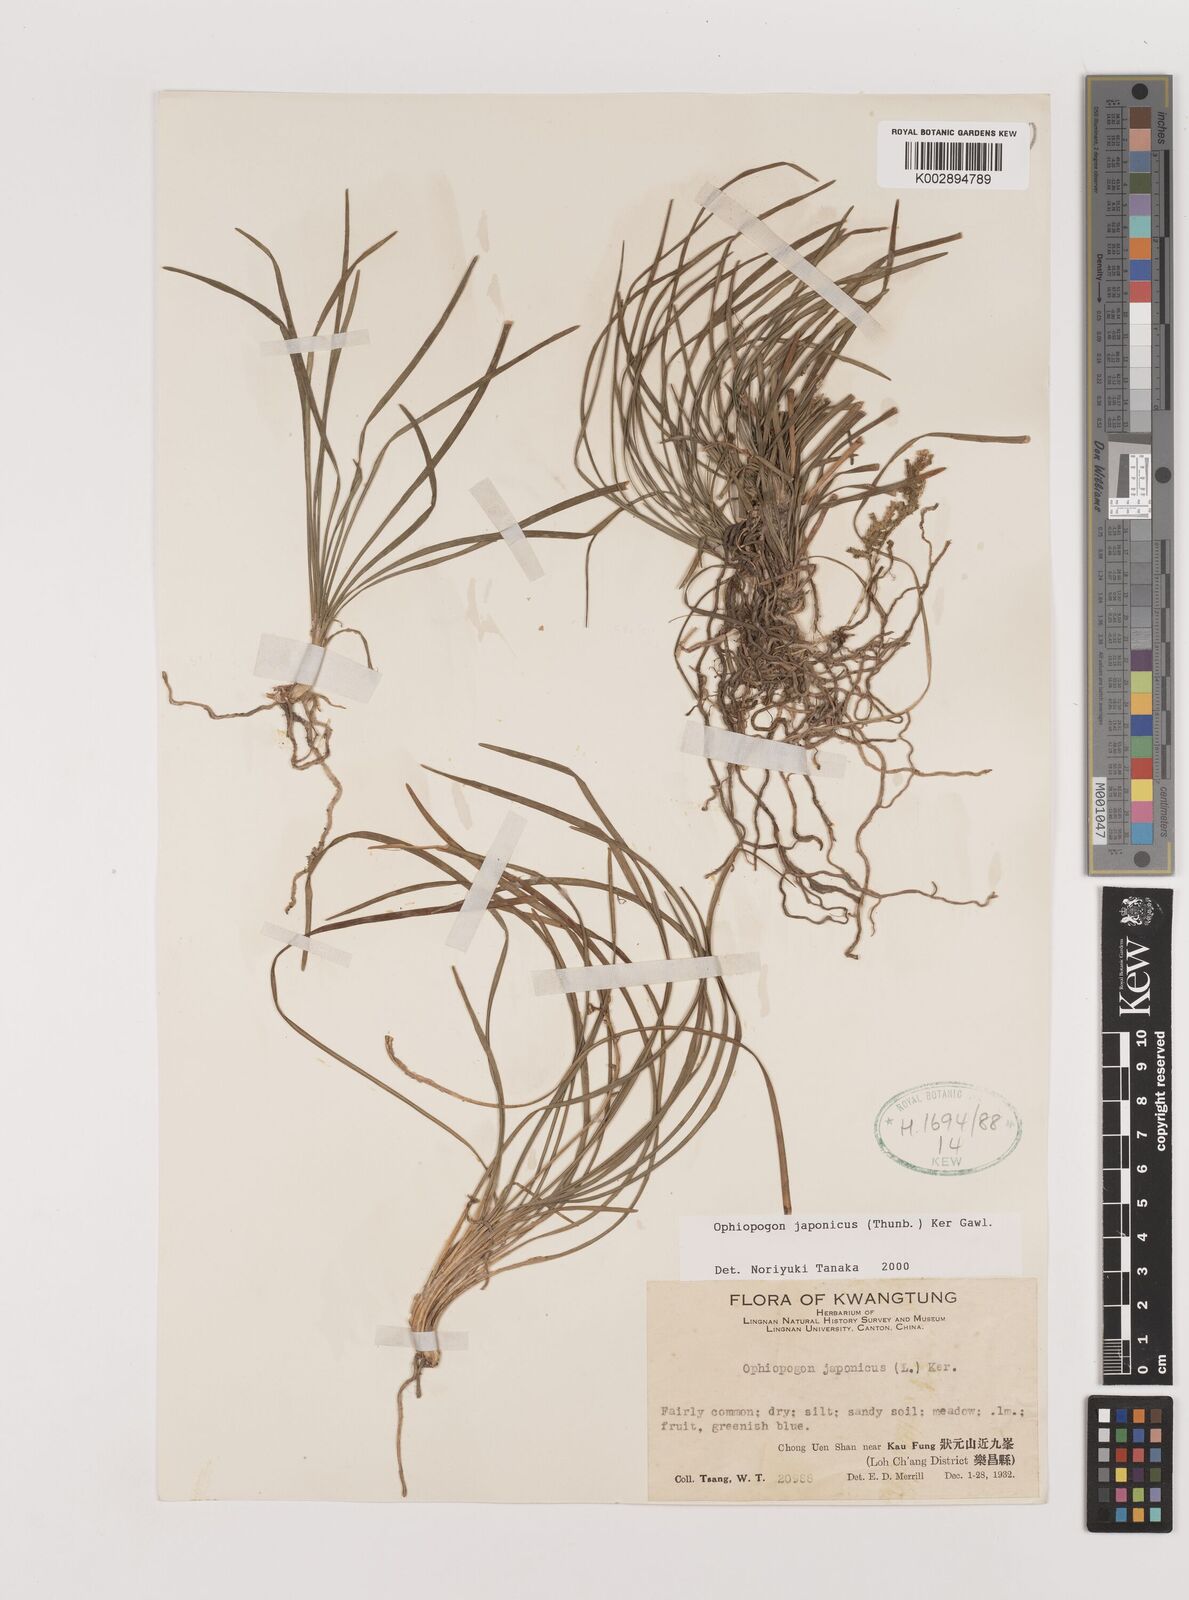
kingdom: Plantae
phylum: Tracheophyta
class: Liliopsida
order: Asparagales
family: Asparagaceae
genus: Ophiopogon
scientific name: Ophiopogon japonicus
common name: Dwarf lilyturf
